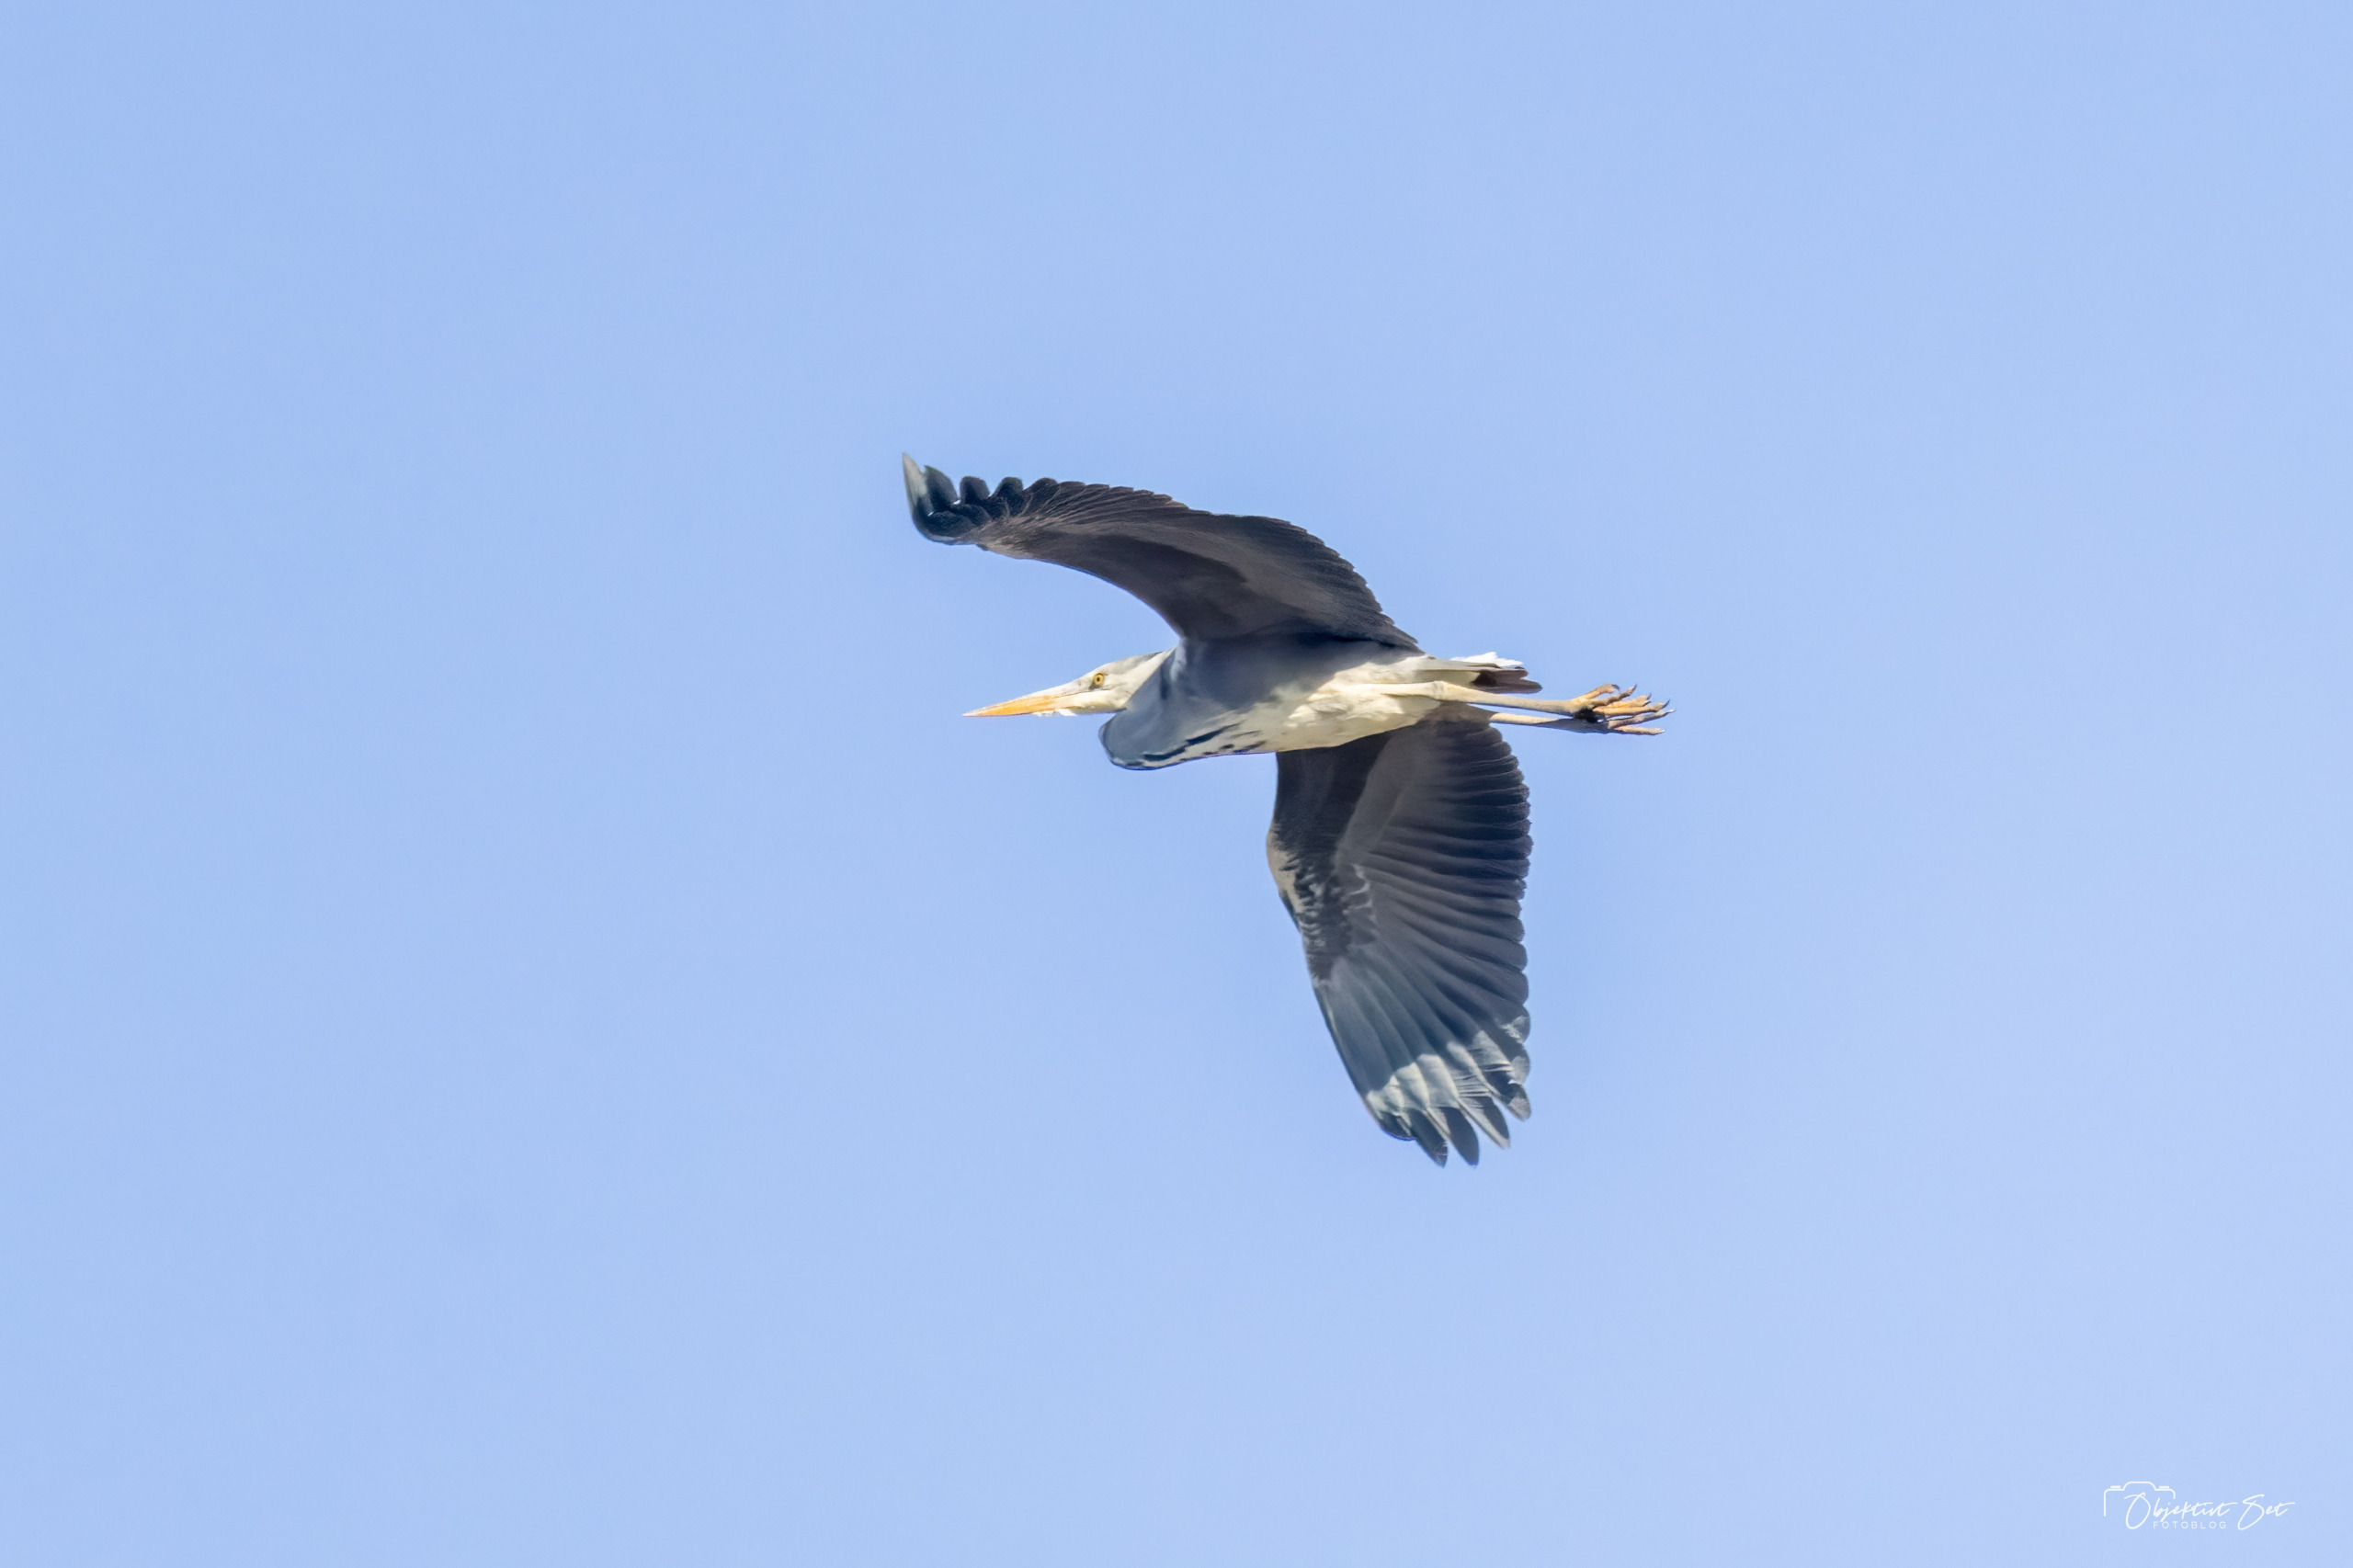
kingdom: Animalia
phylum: Chordata
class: Aves
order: Pelecaniformes
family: Ardeidae
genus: Ardea
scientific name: Ardea cinerea
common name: Fiskehejre
